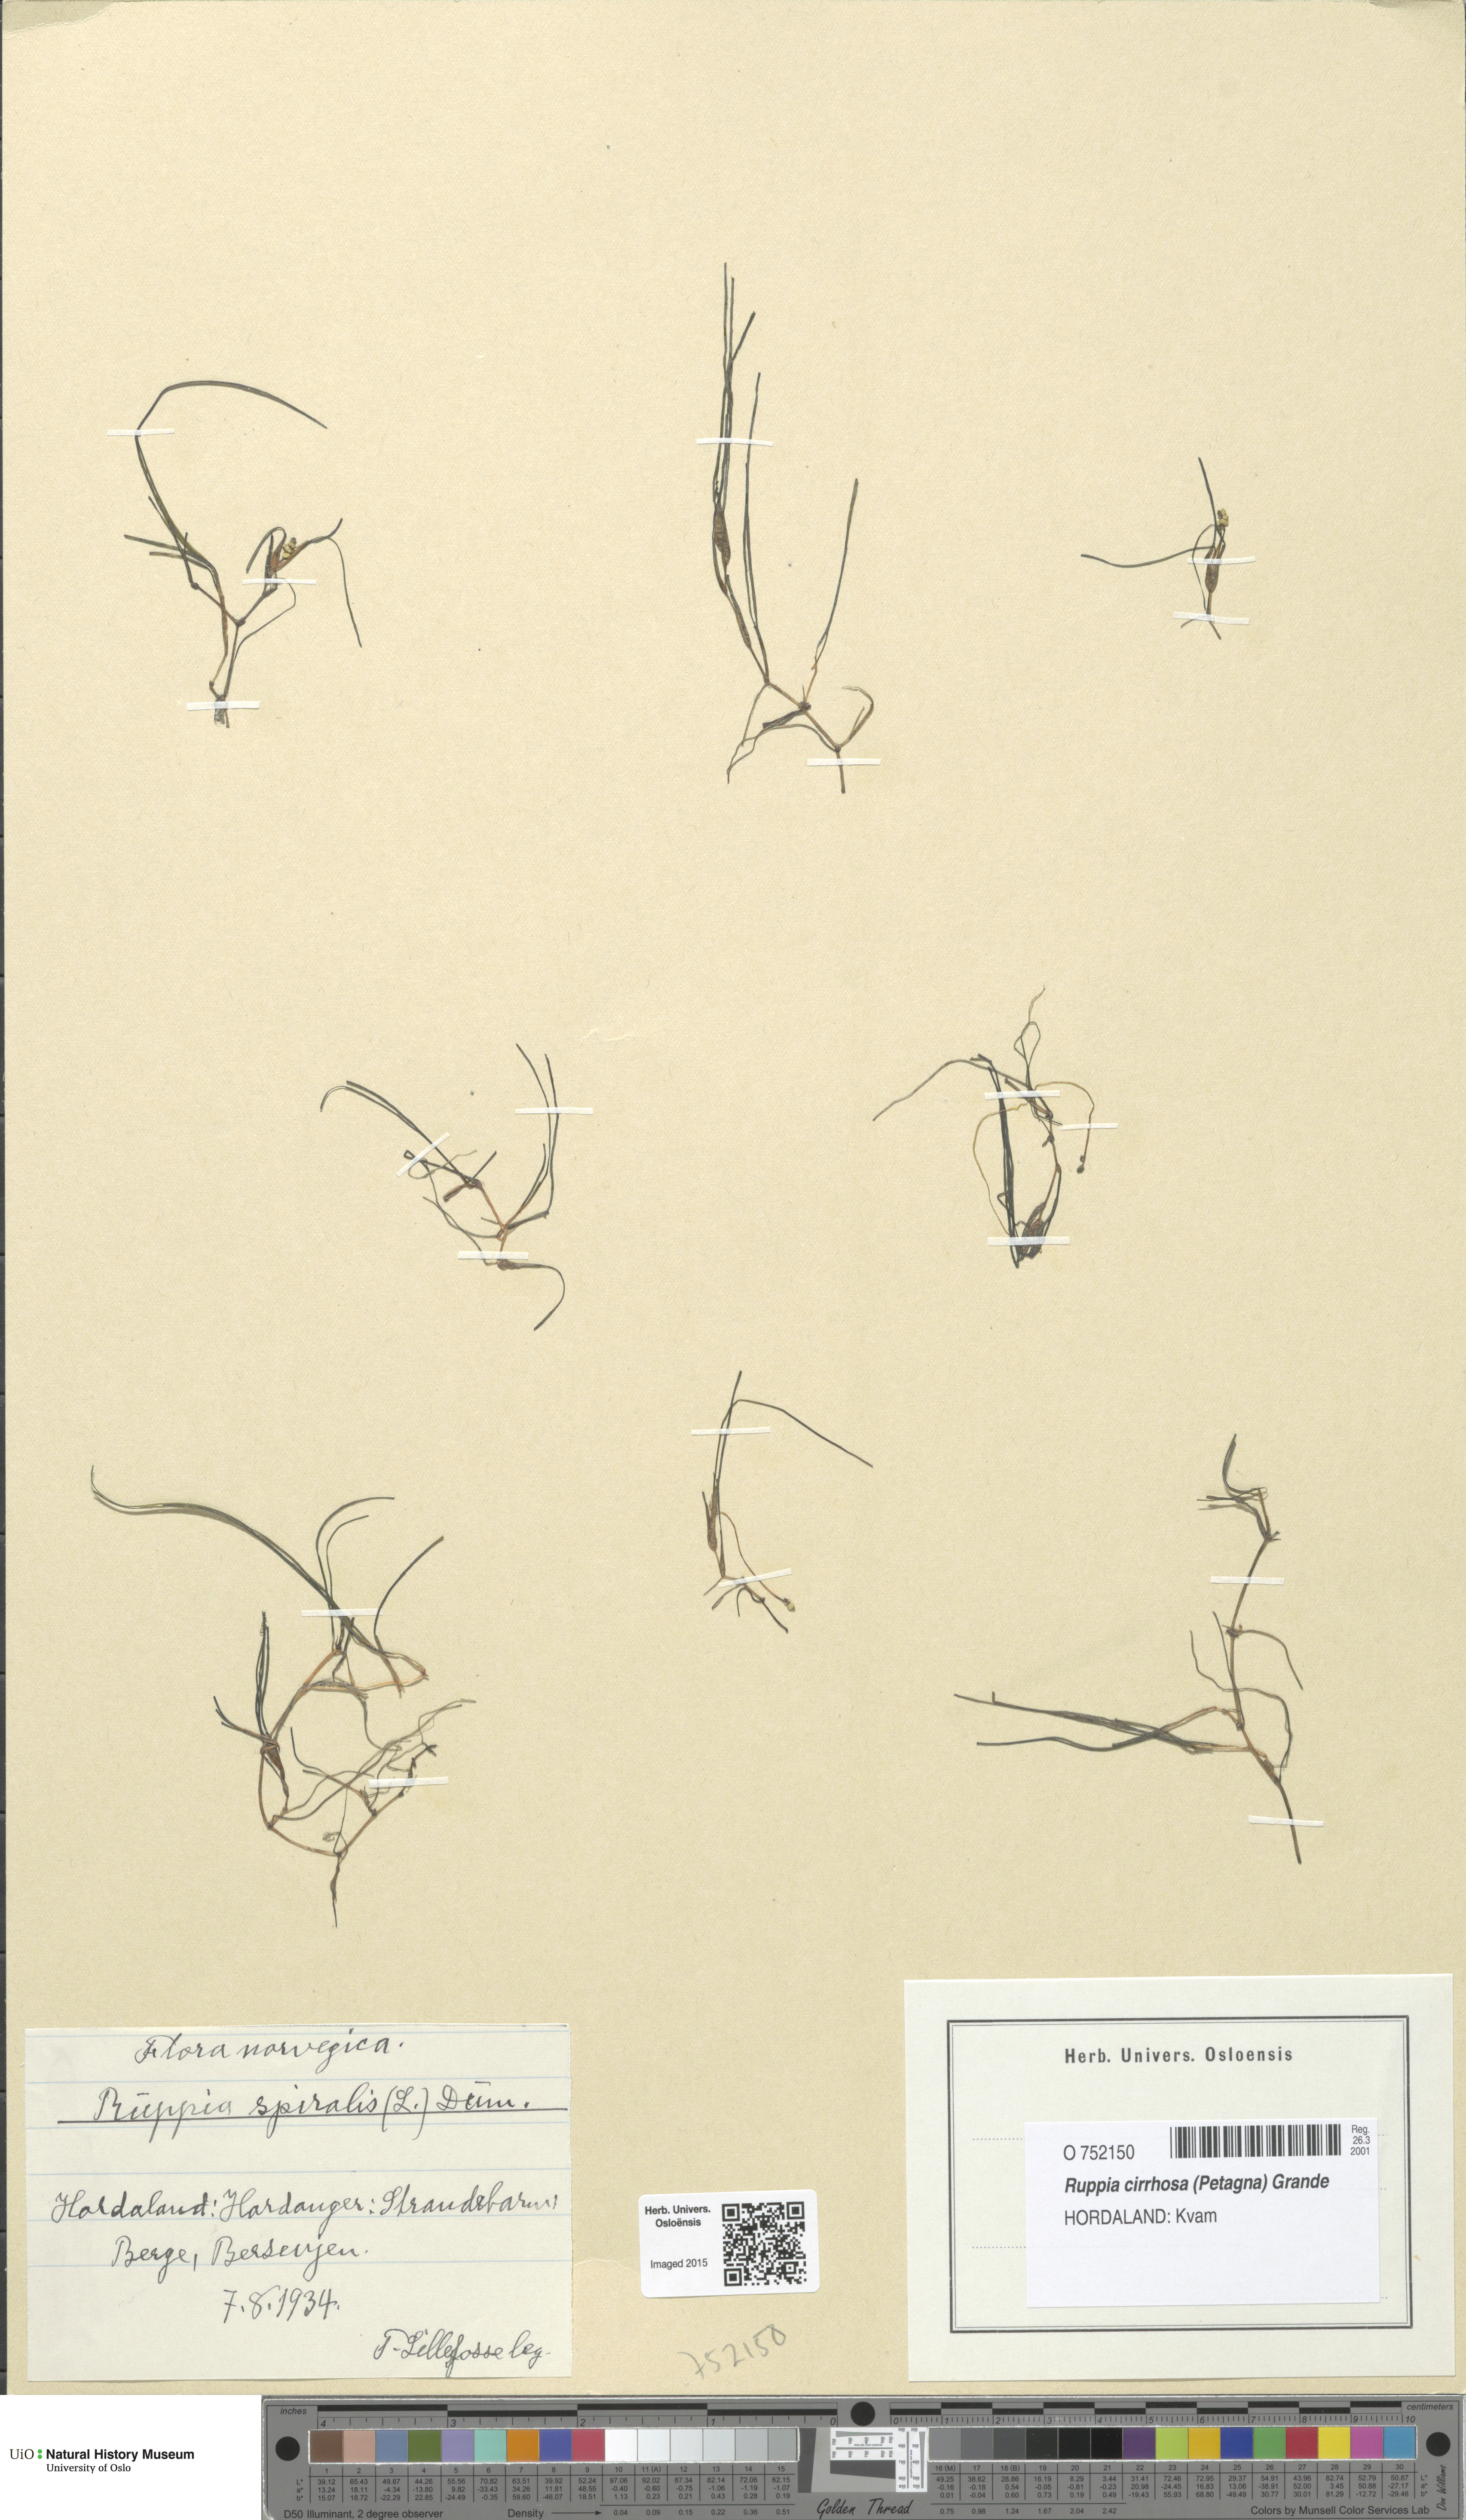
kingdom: Plantae
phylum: Tracheophyta
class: Liliopsida
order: Alismatales
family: Ruppiaceae
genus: Ruppia
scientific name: Ruppia cirrhosa
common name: Spiral tasselweed
